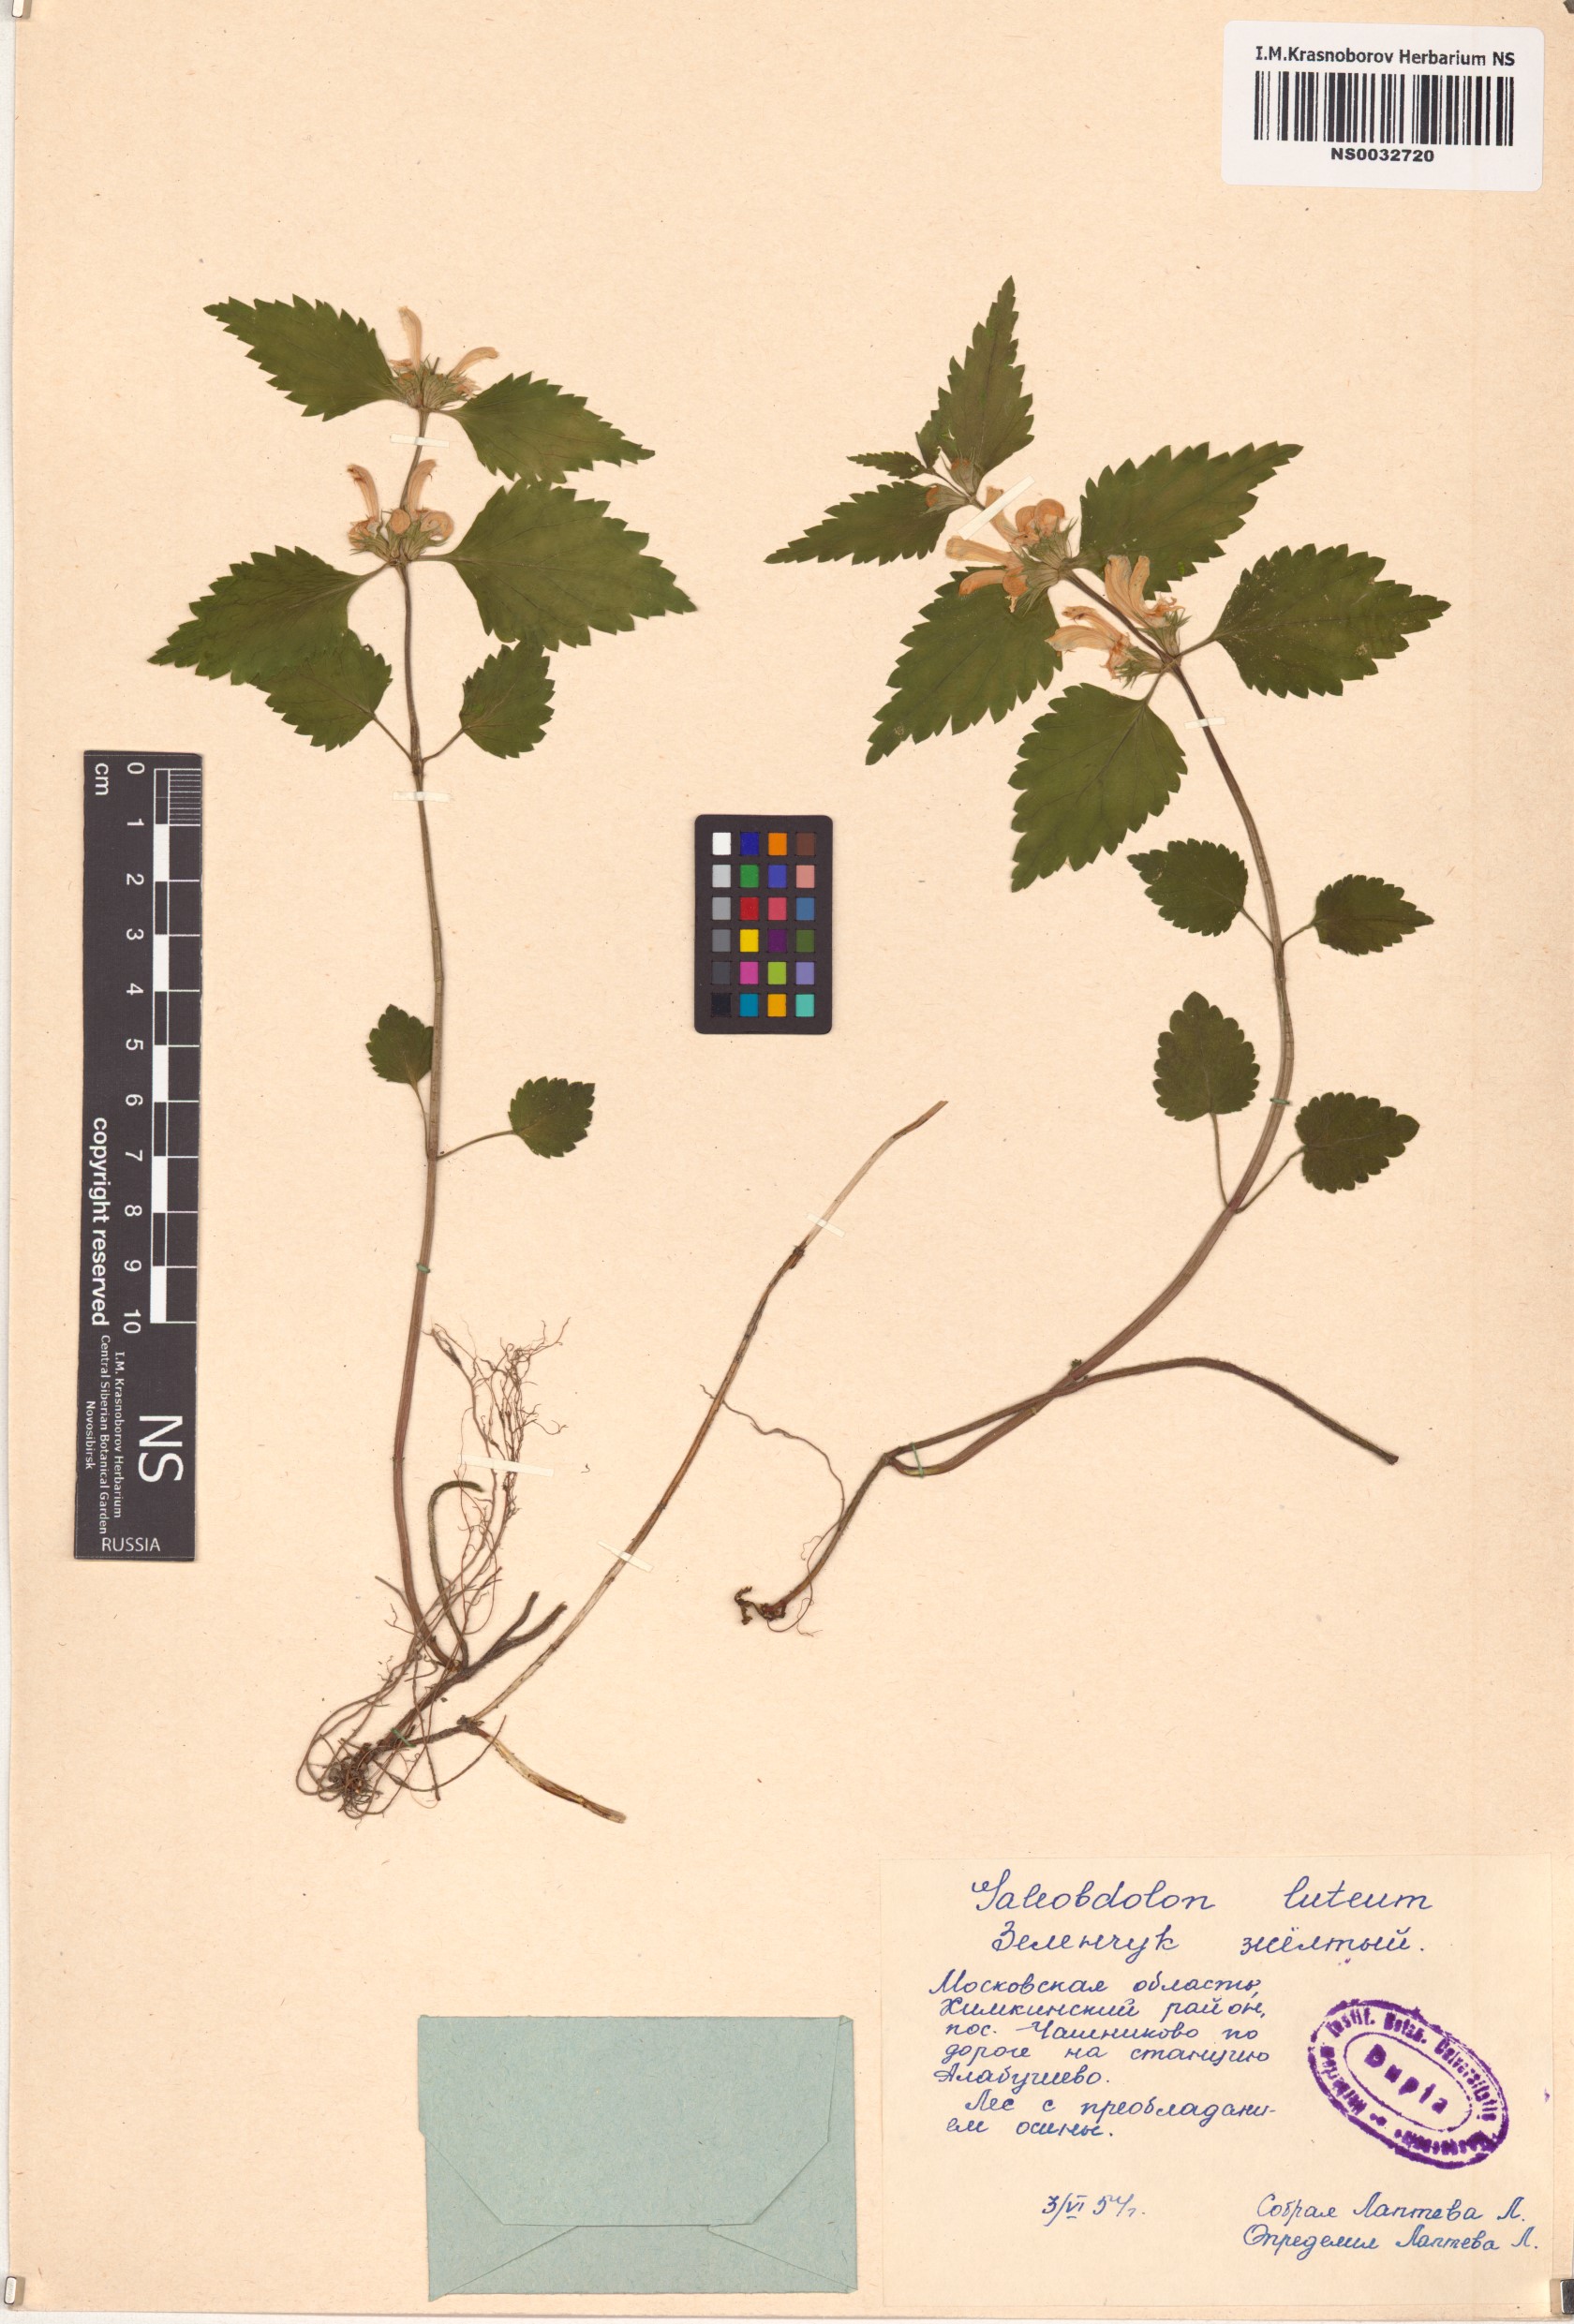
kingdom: Plantae
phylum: Tracheophyta
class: Magnoliopsida
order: Lamiales
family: Lamiaceae
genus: Lamium
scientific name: Lamium galeobdolon
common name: Yellow archangel
